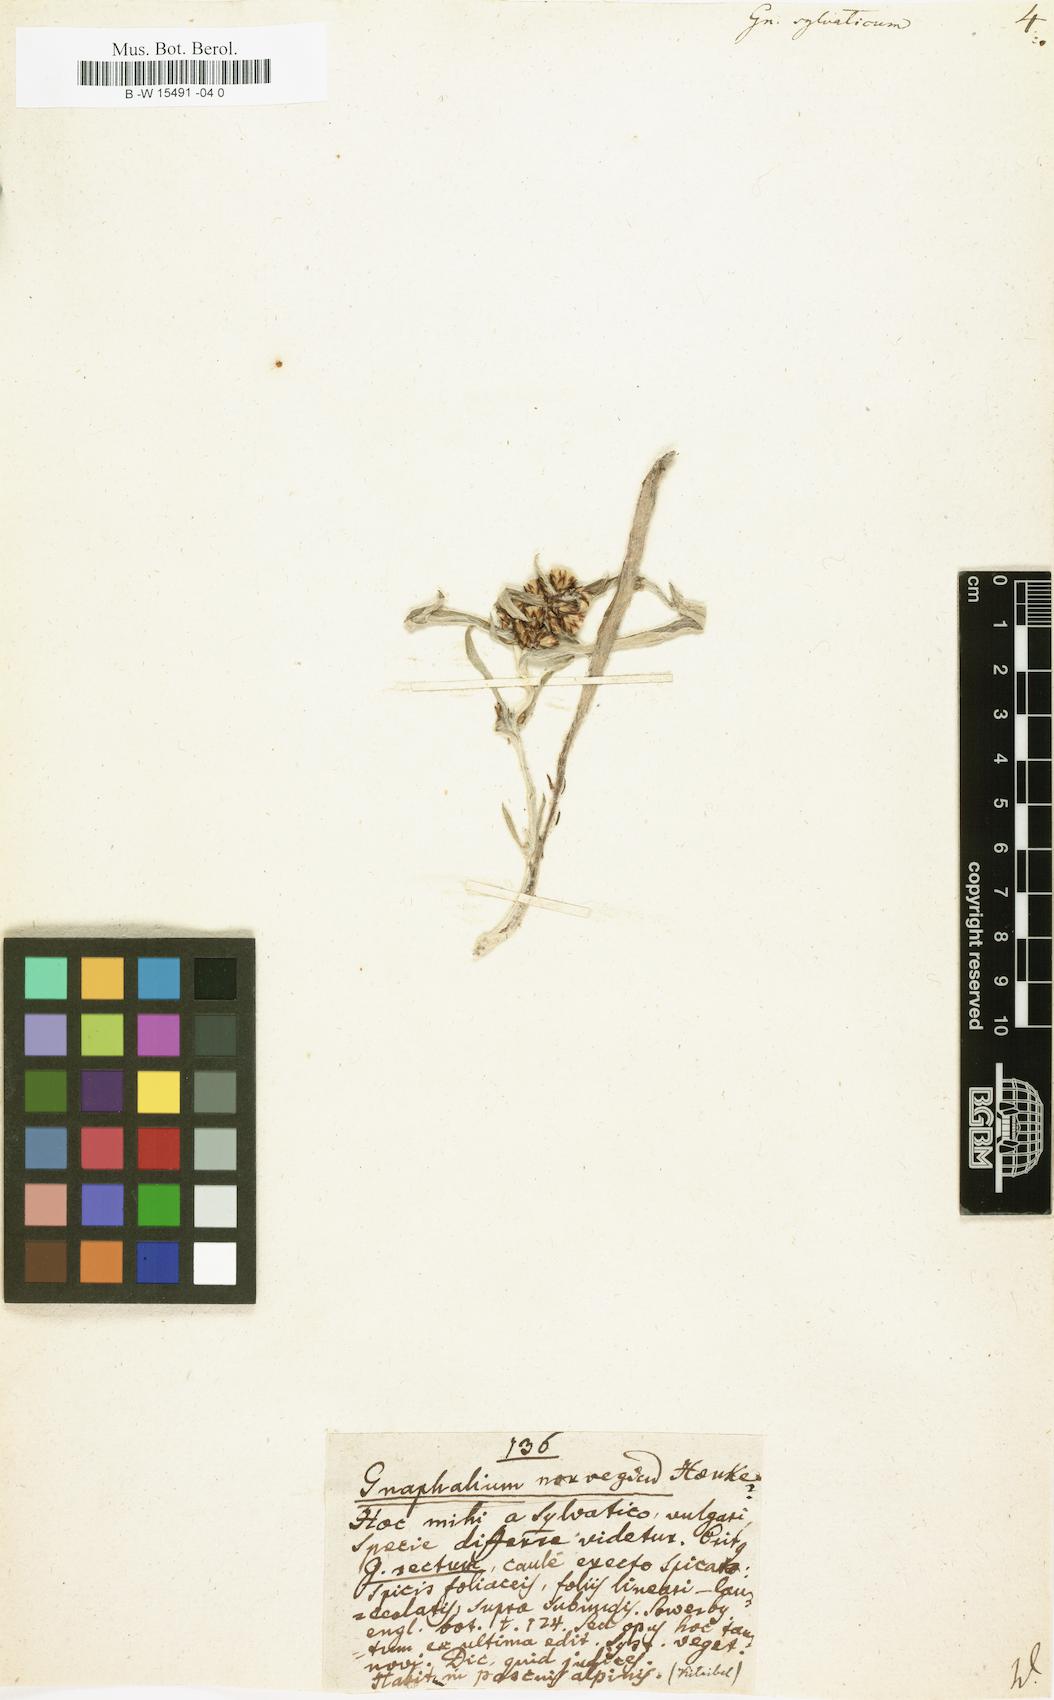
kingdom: Plantae
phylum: Tracheophyta
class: Magnoliopsida
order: Asterales
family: Asteraceae
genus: Gnaphalium
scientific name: Gnaphalium sylvaticum
